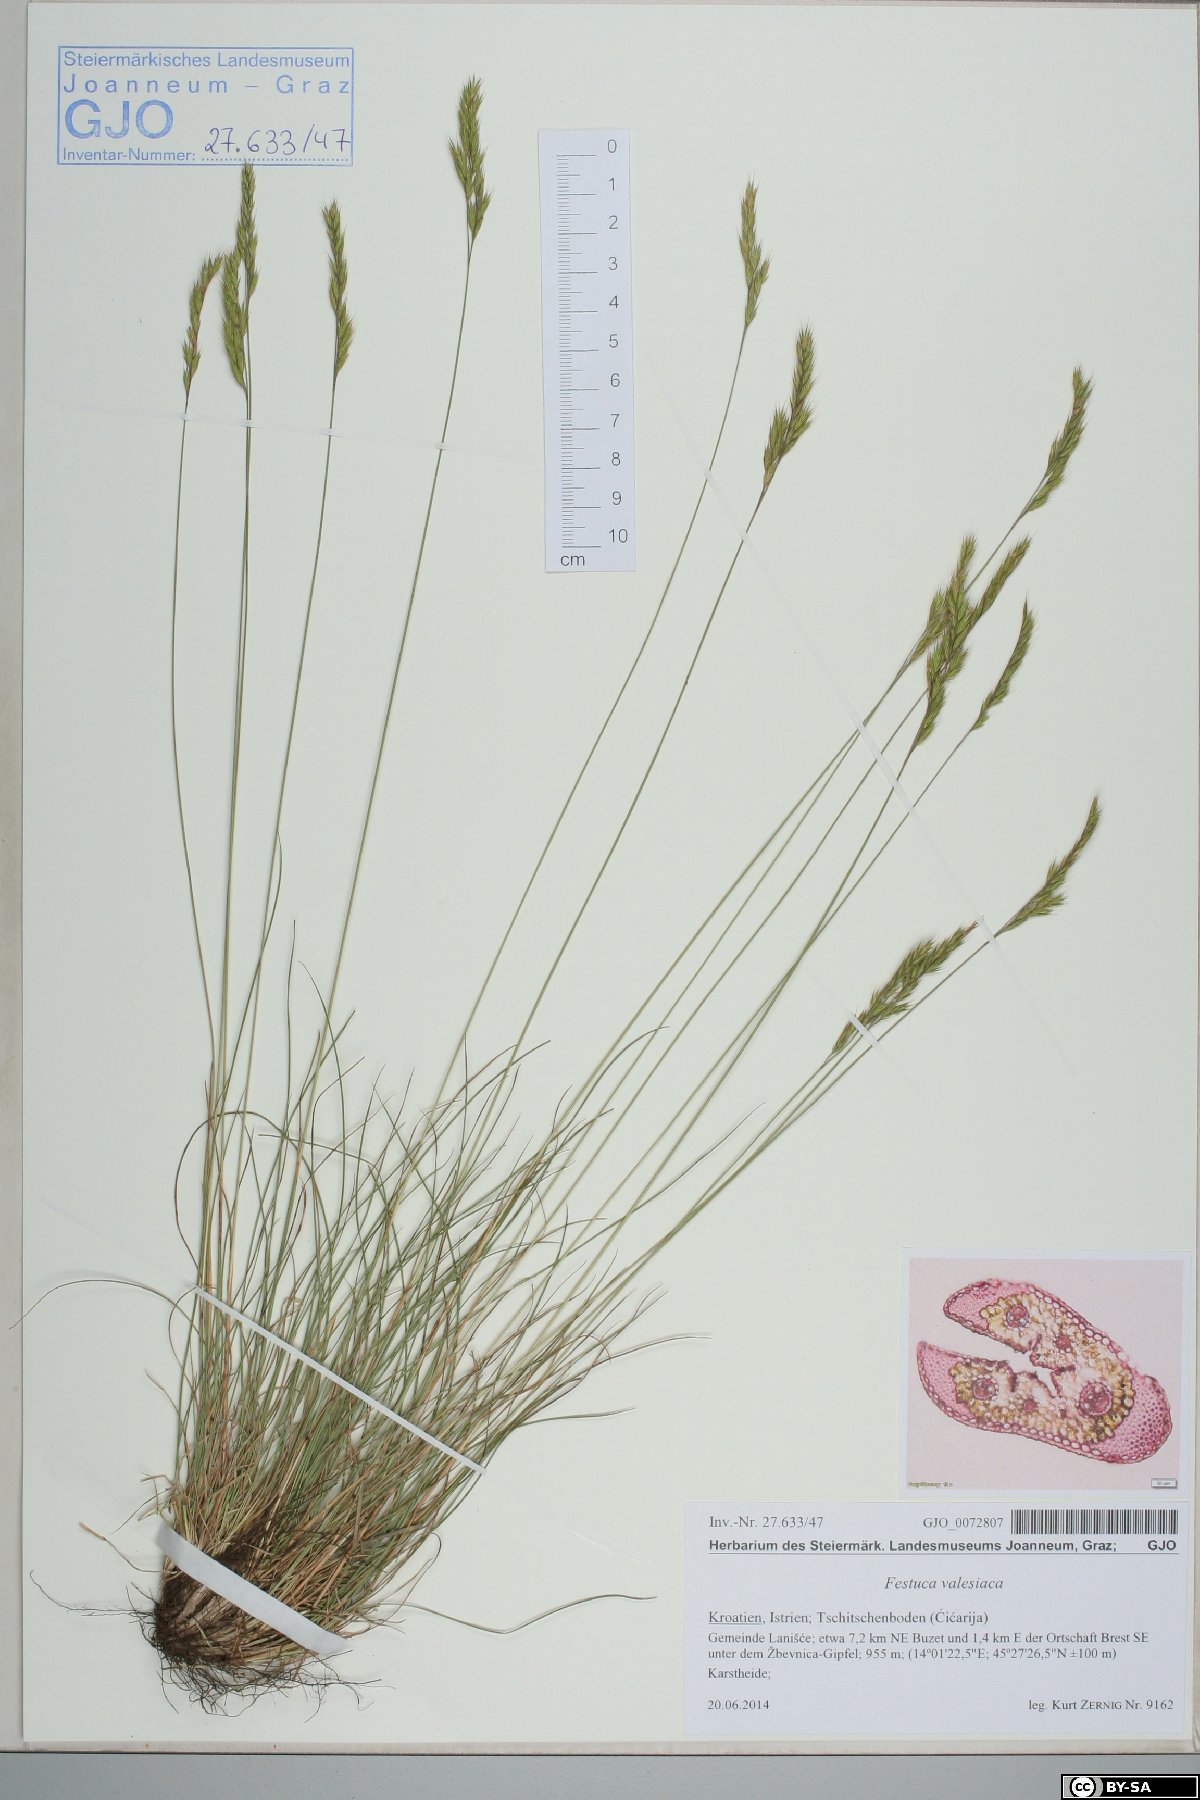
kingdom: Plantae
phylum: Tracheophyta
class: Liliopsida
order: Poales
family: Poaceae
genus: Festuca
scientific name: Festuca rupicola
